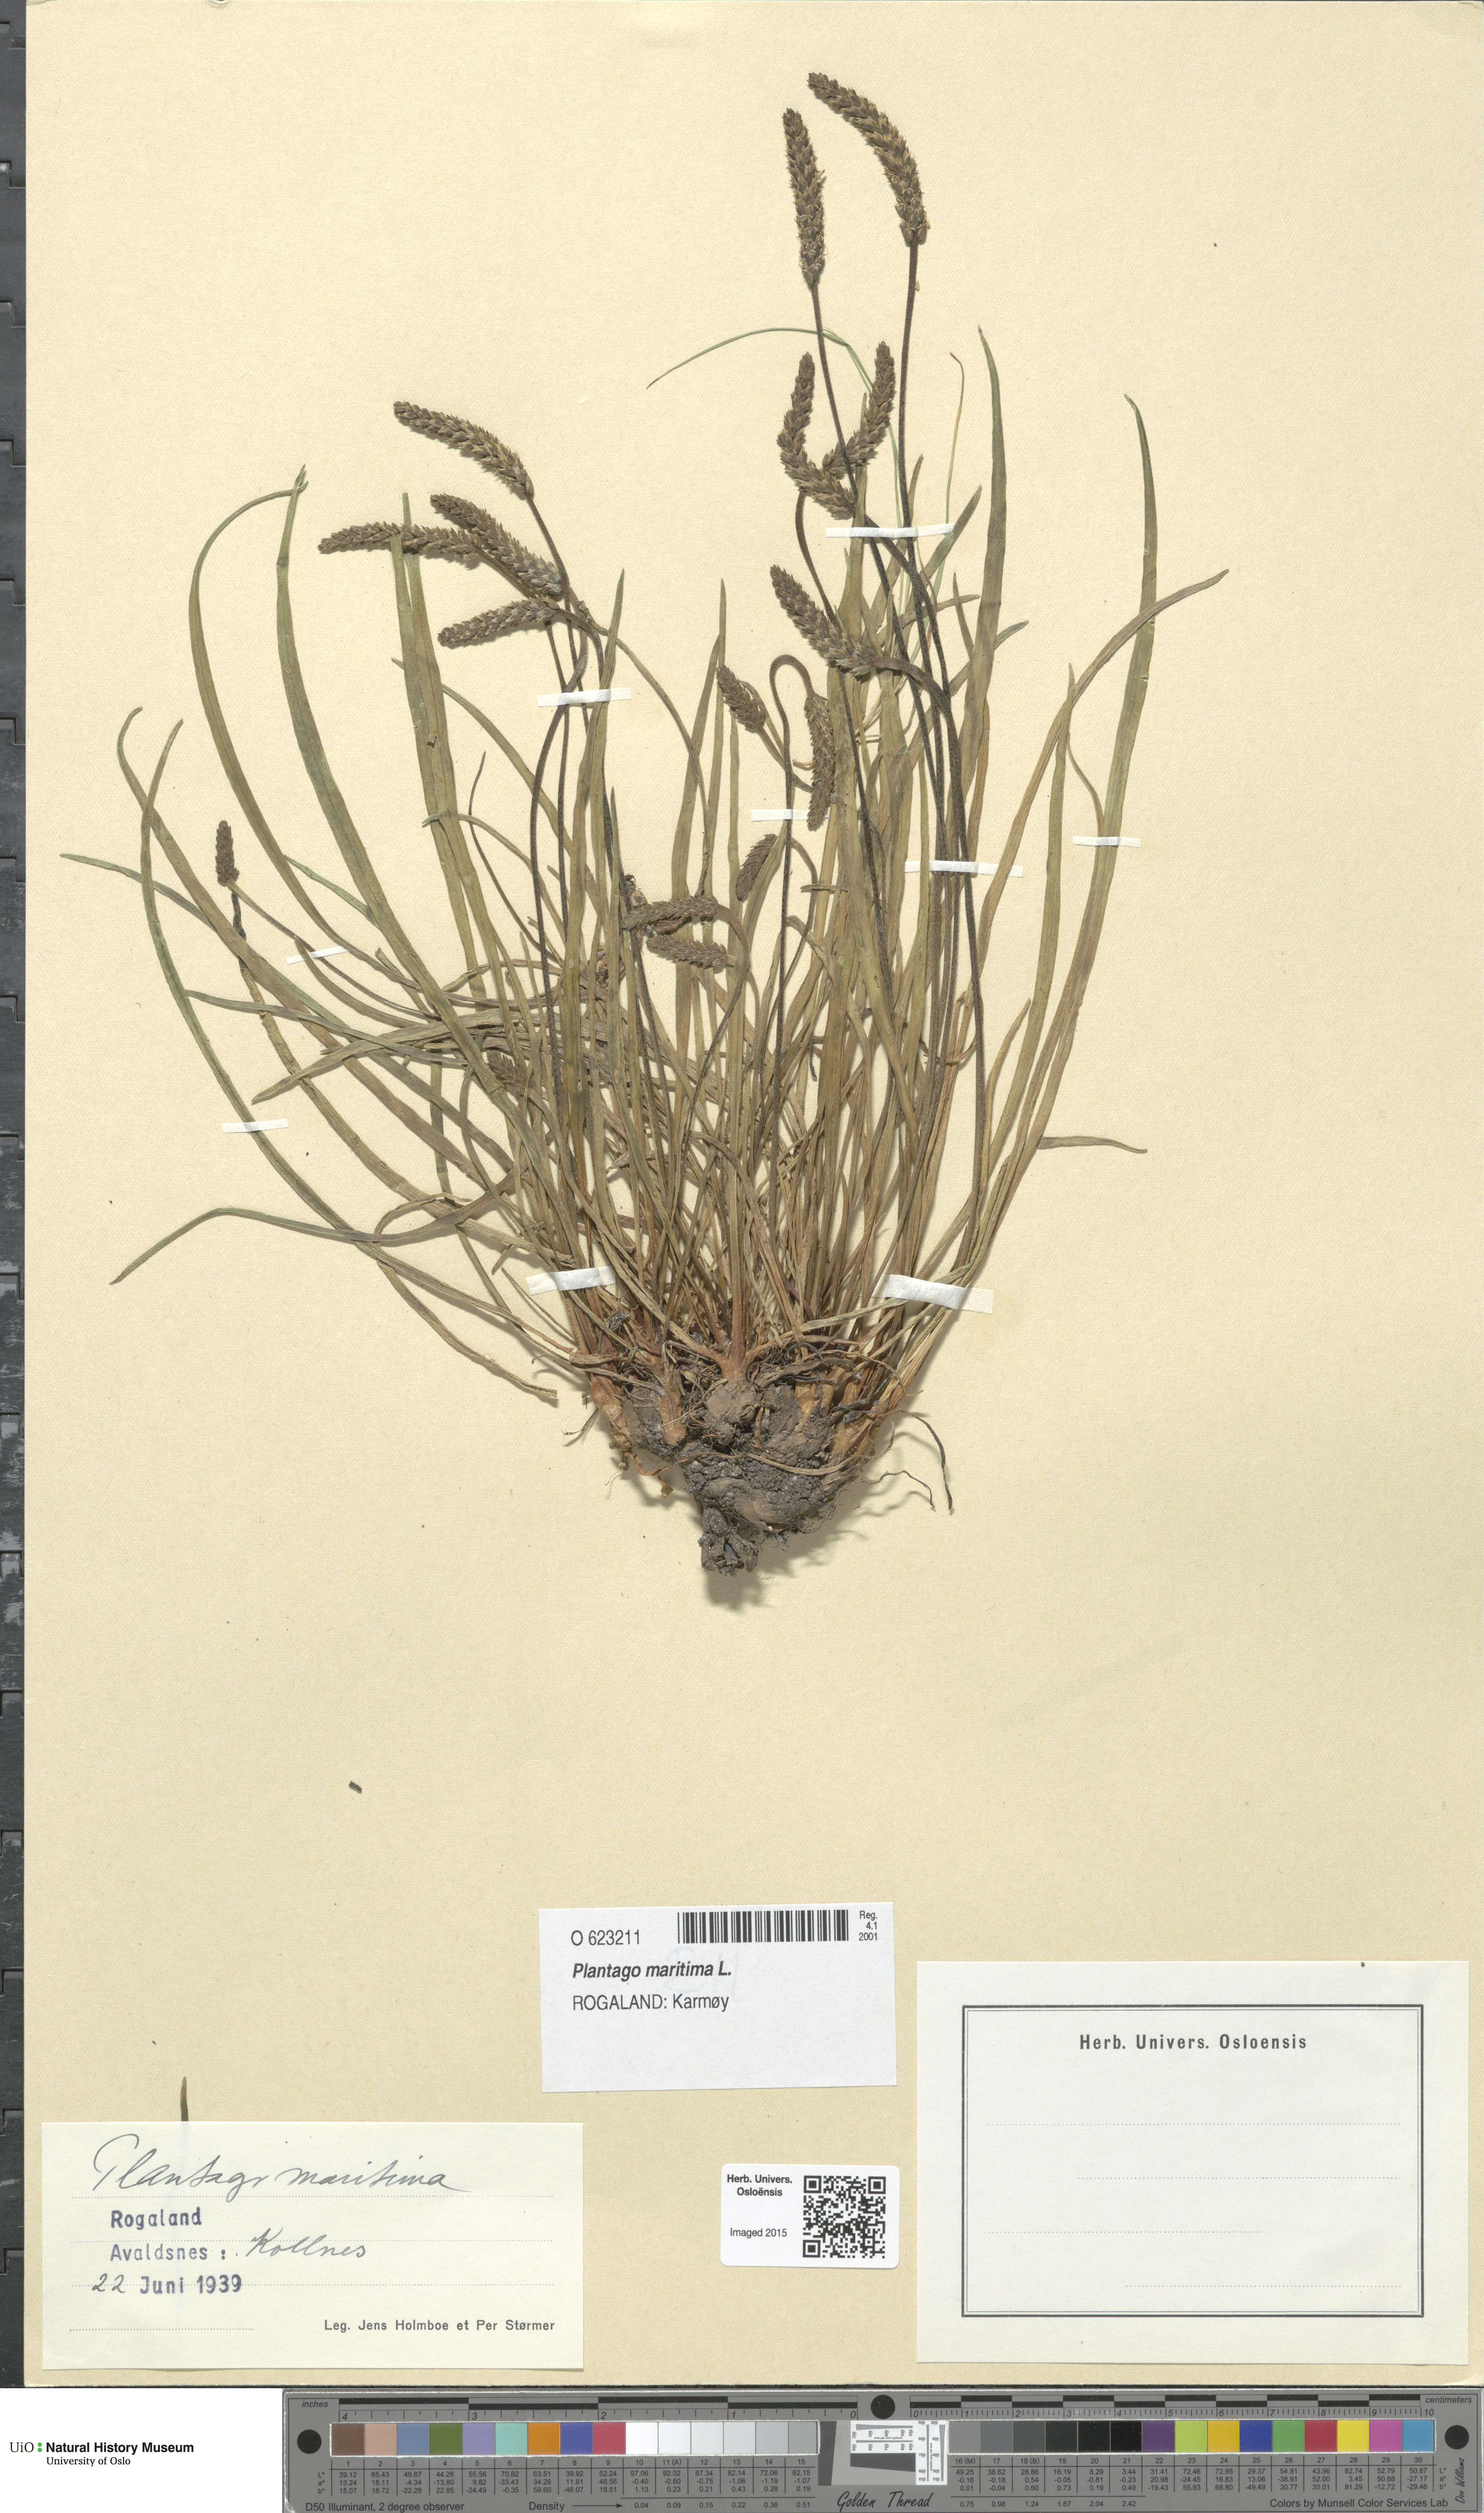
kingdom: Plantae
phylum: Tracheophyta
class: Magnoliopsida
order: Lamiales
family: Plantaginaceae
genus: Plantago
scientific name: Plantago maritima
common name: Sea plantain
